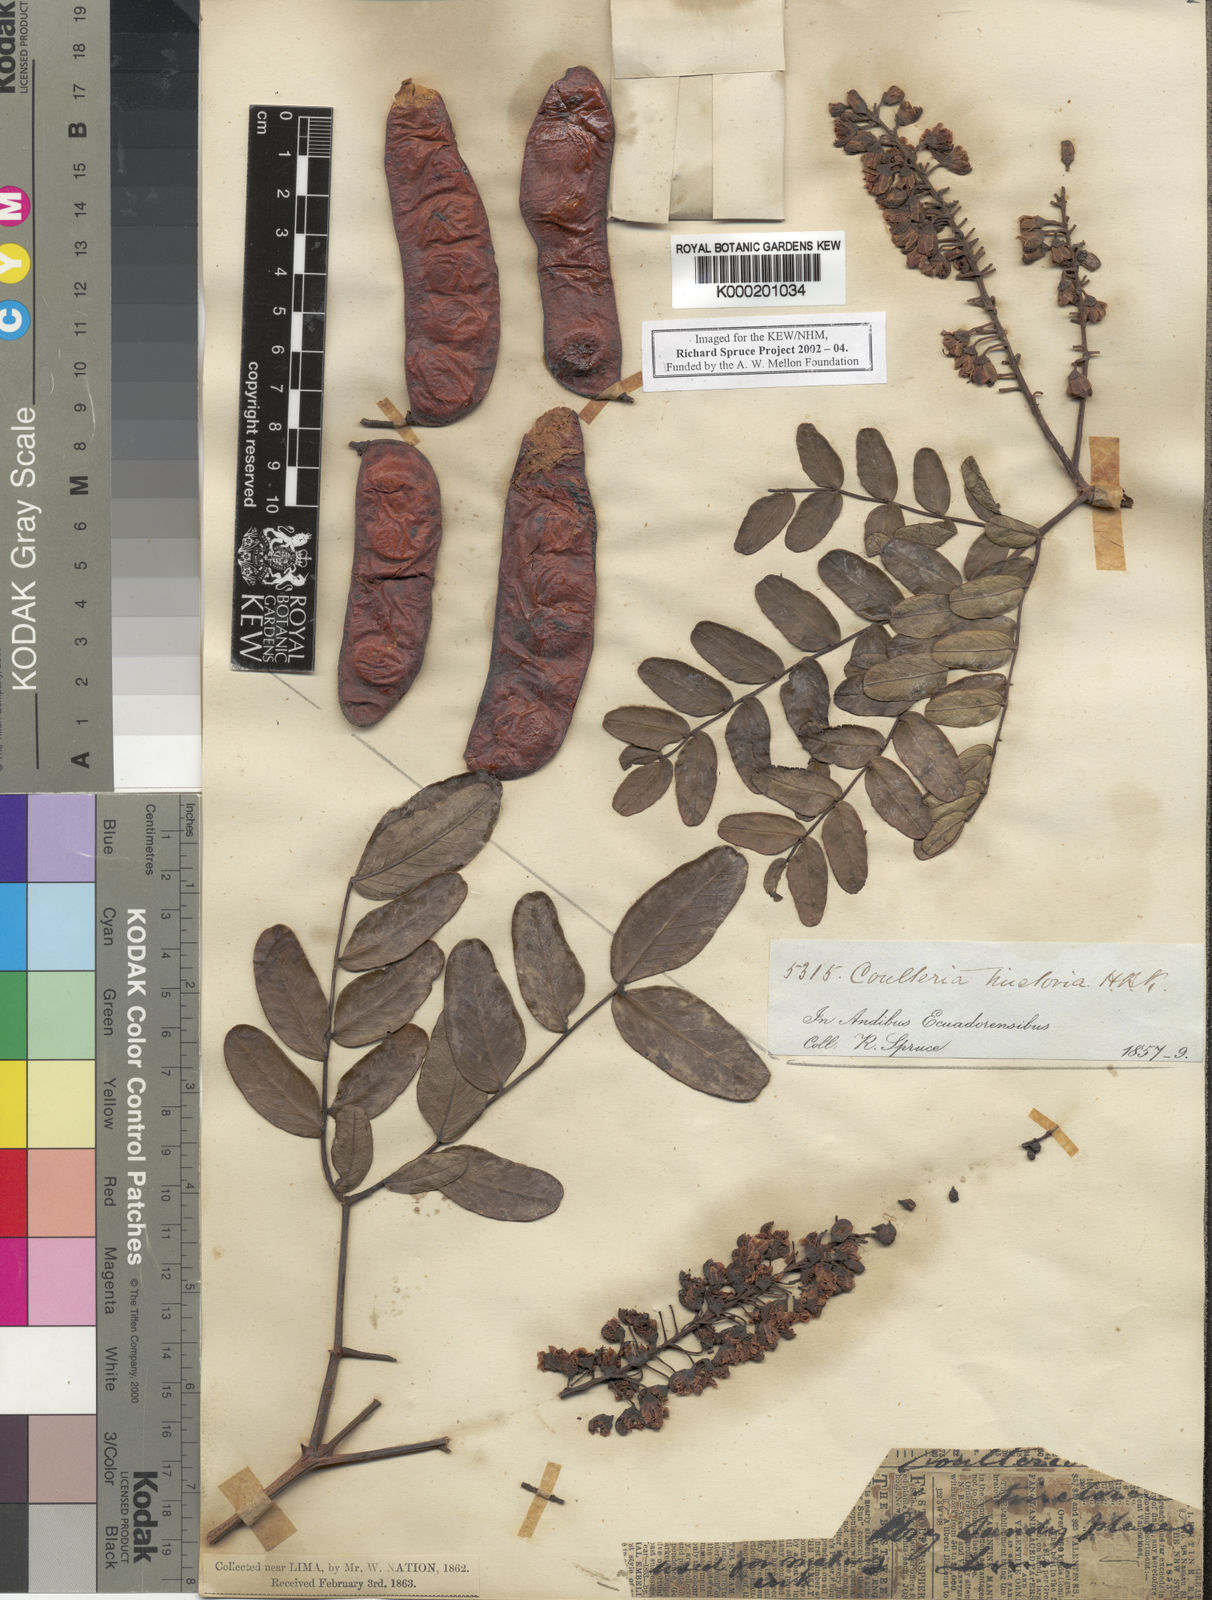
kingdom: Plantae
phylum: Tracheophyta
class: Magnoliopsida
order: Fabales
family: Fabaceae
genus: Tara
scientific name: Tara spinosa
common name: Spiny holdback
